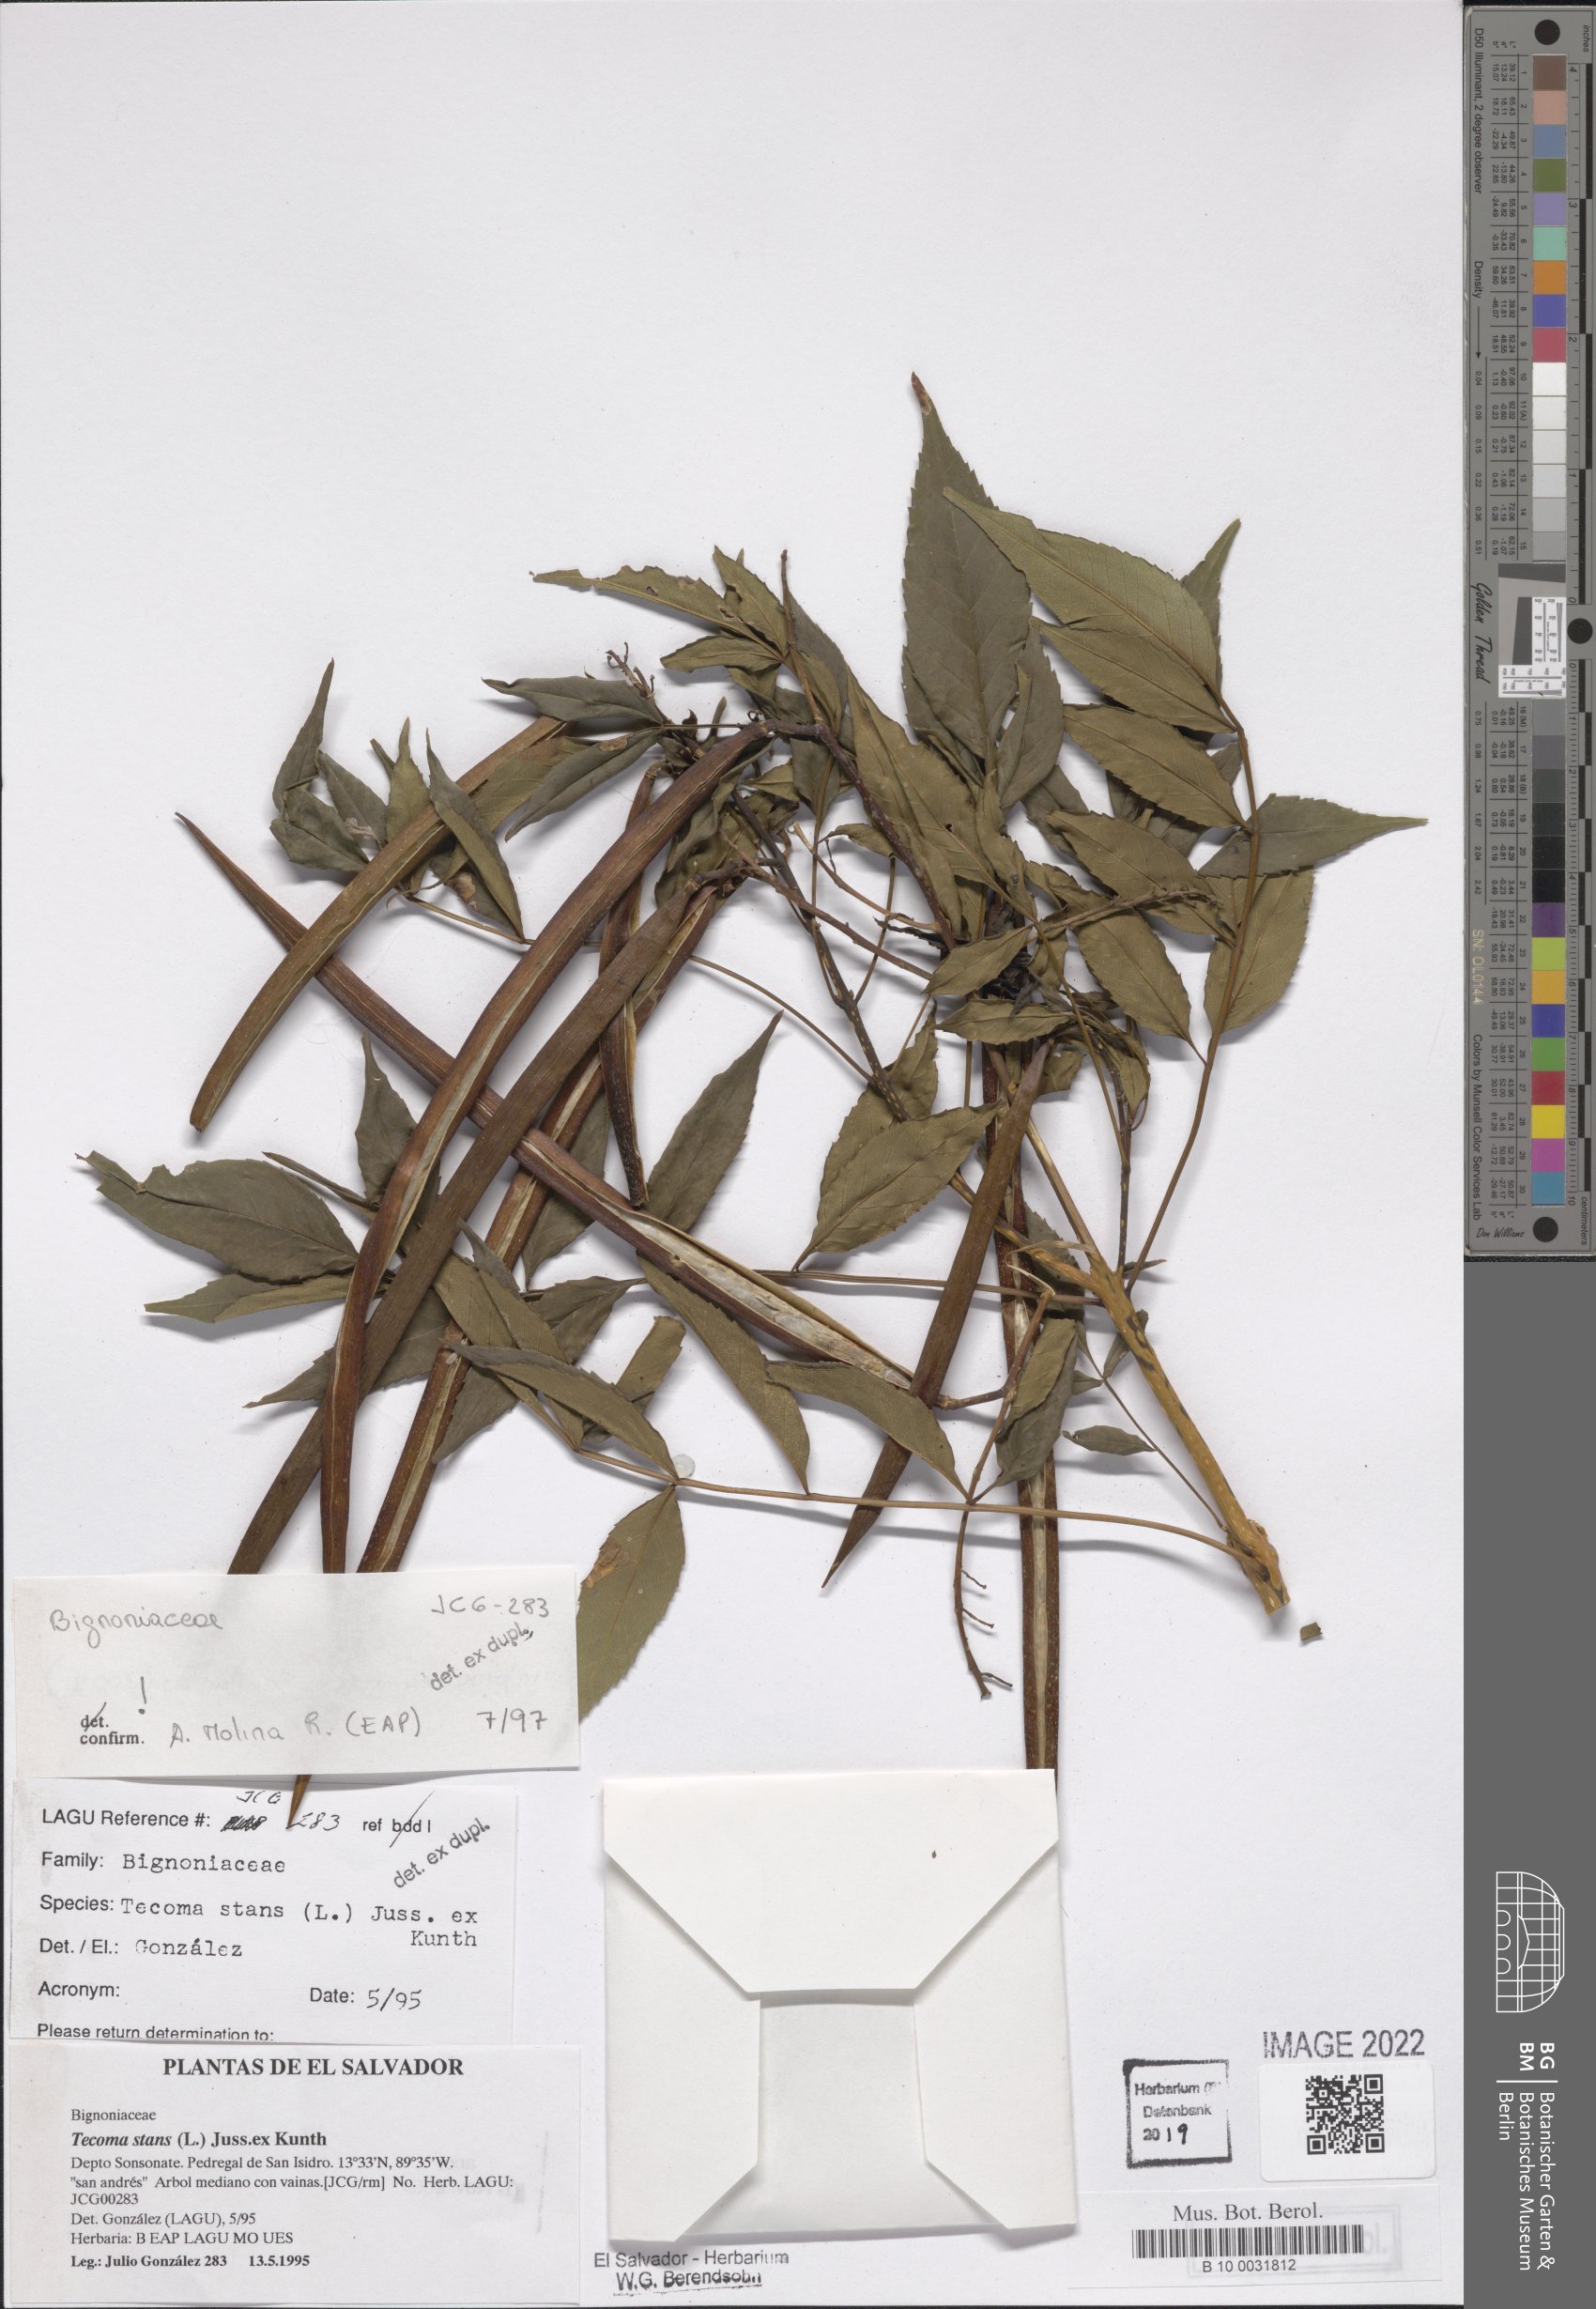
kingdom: Plantae
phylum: Tracheophyta
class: Magnoliopsida
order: Lamiales
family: Bignoniaceae
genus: Tecoma
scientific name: Tecoma stans
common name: Yellow trumpetbush
